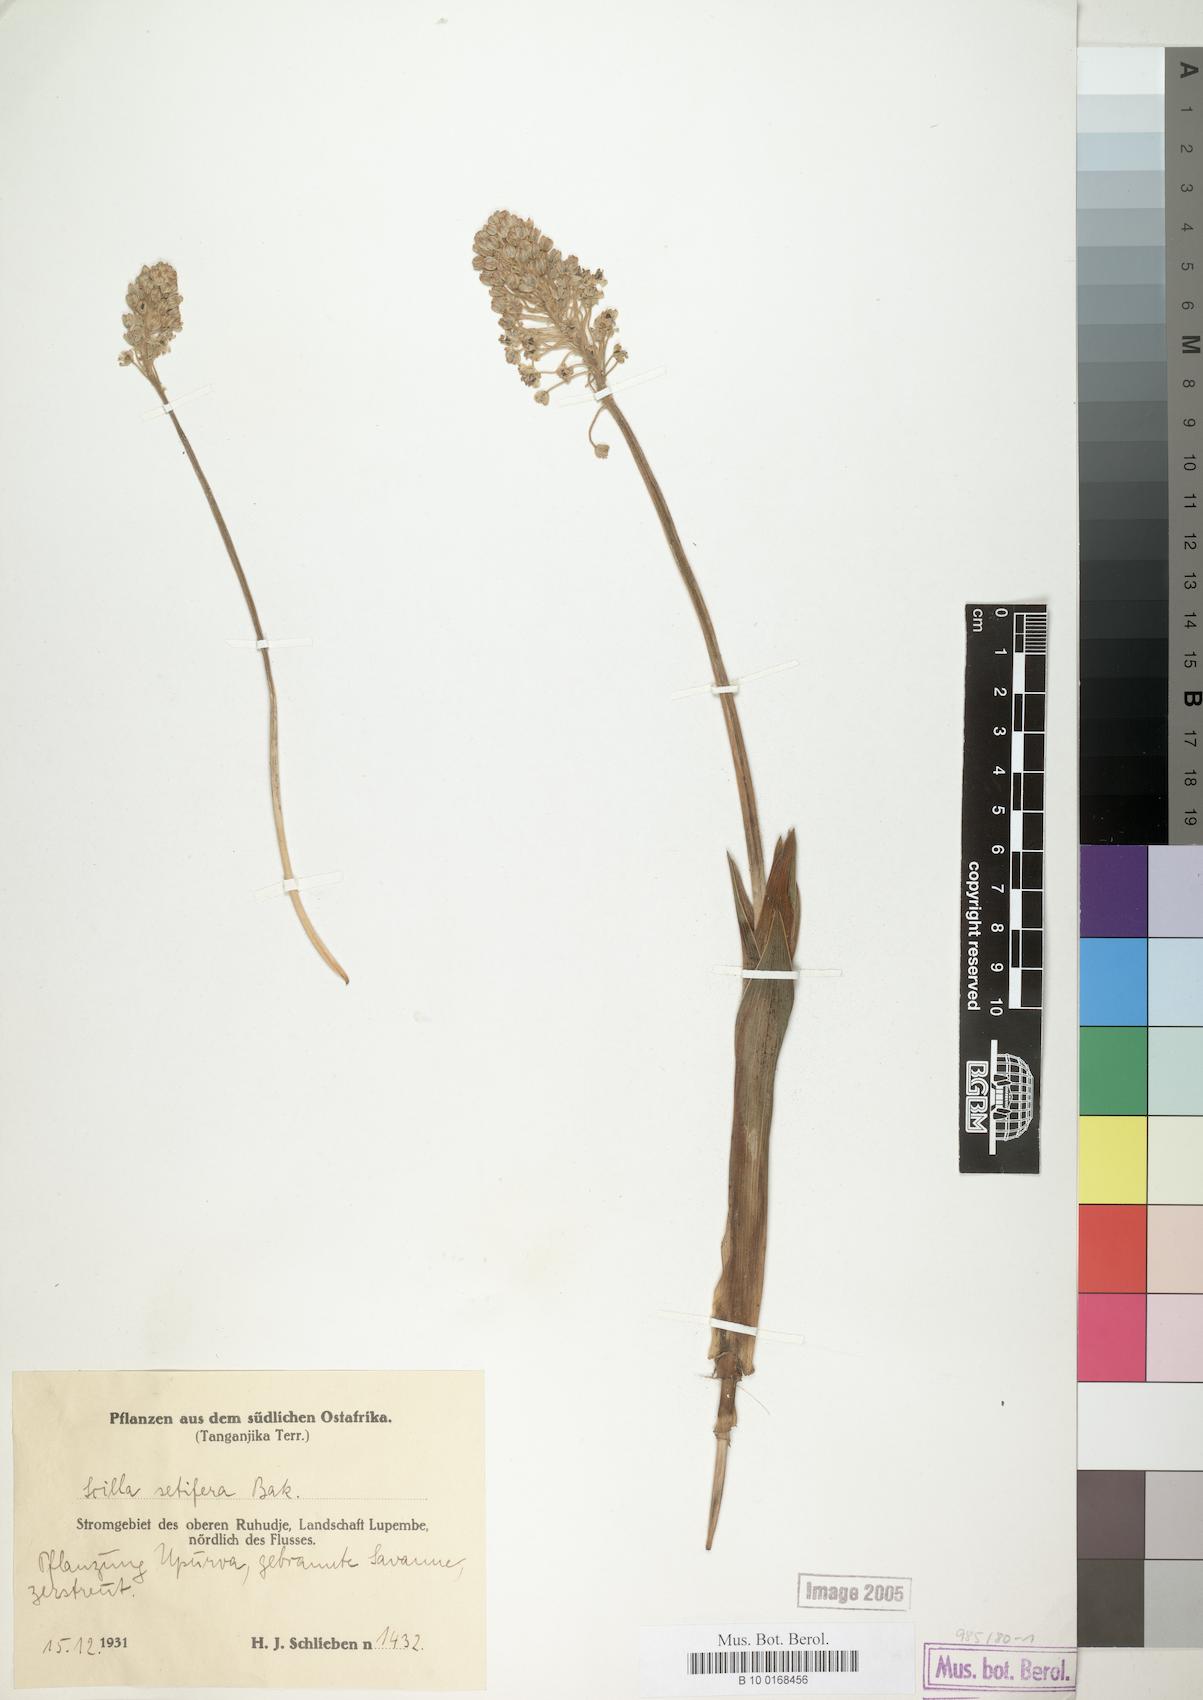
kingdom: Plantae
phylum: Tracheophyta
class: Liliopsida
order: Asparagales
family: Asparagaceae
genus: Schizocarphus
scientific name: Schizocarphus nervosus
